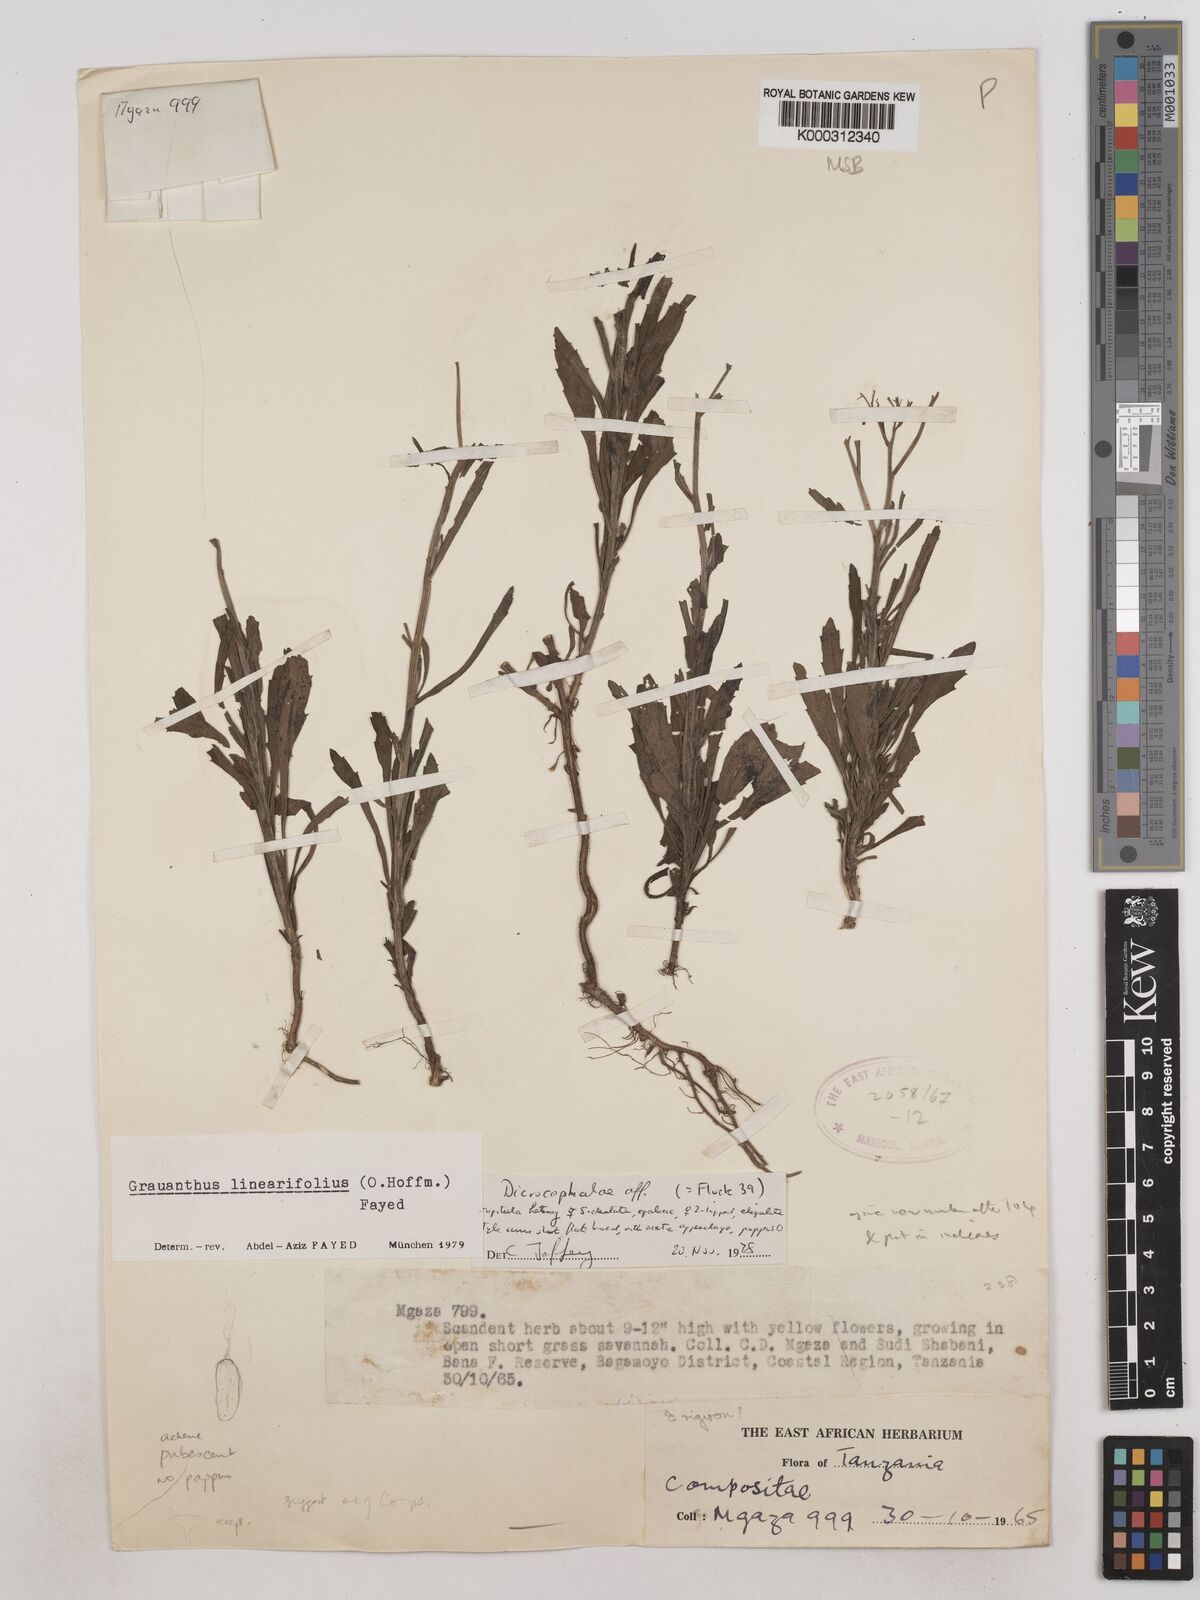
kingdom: Plantae
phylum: Tracheophyta
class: Magnoliopsida
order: Asterales
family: Asteraceae
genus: Grauanthus
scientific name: Grauanthus linearifolius
